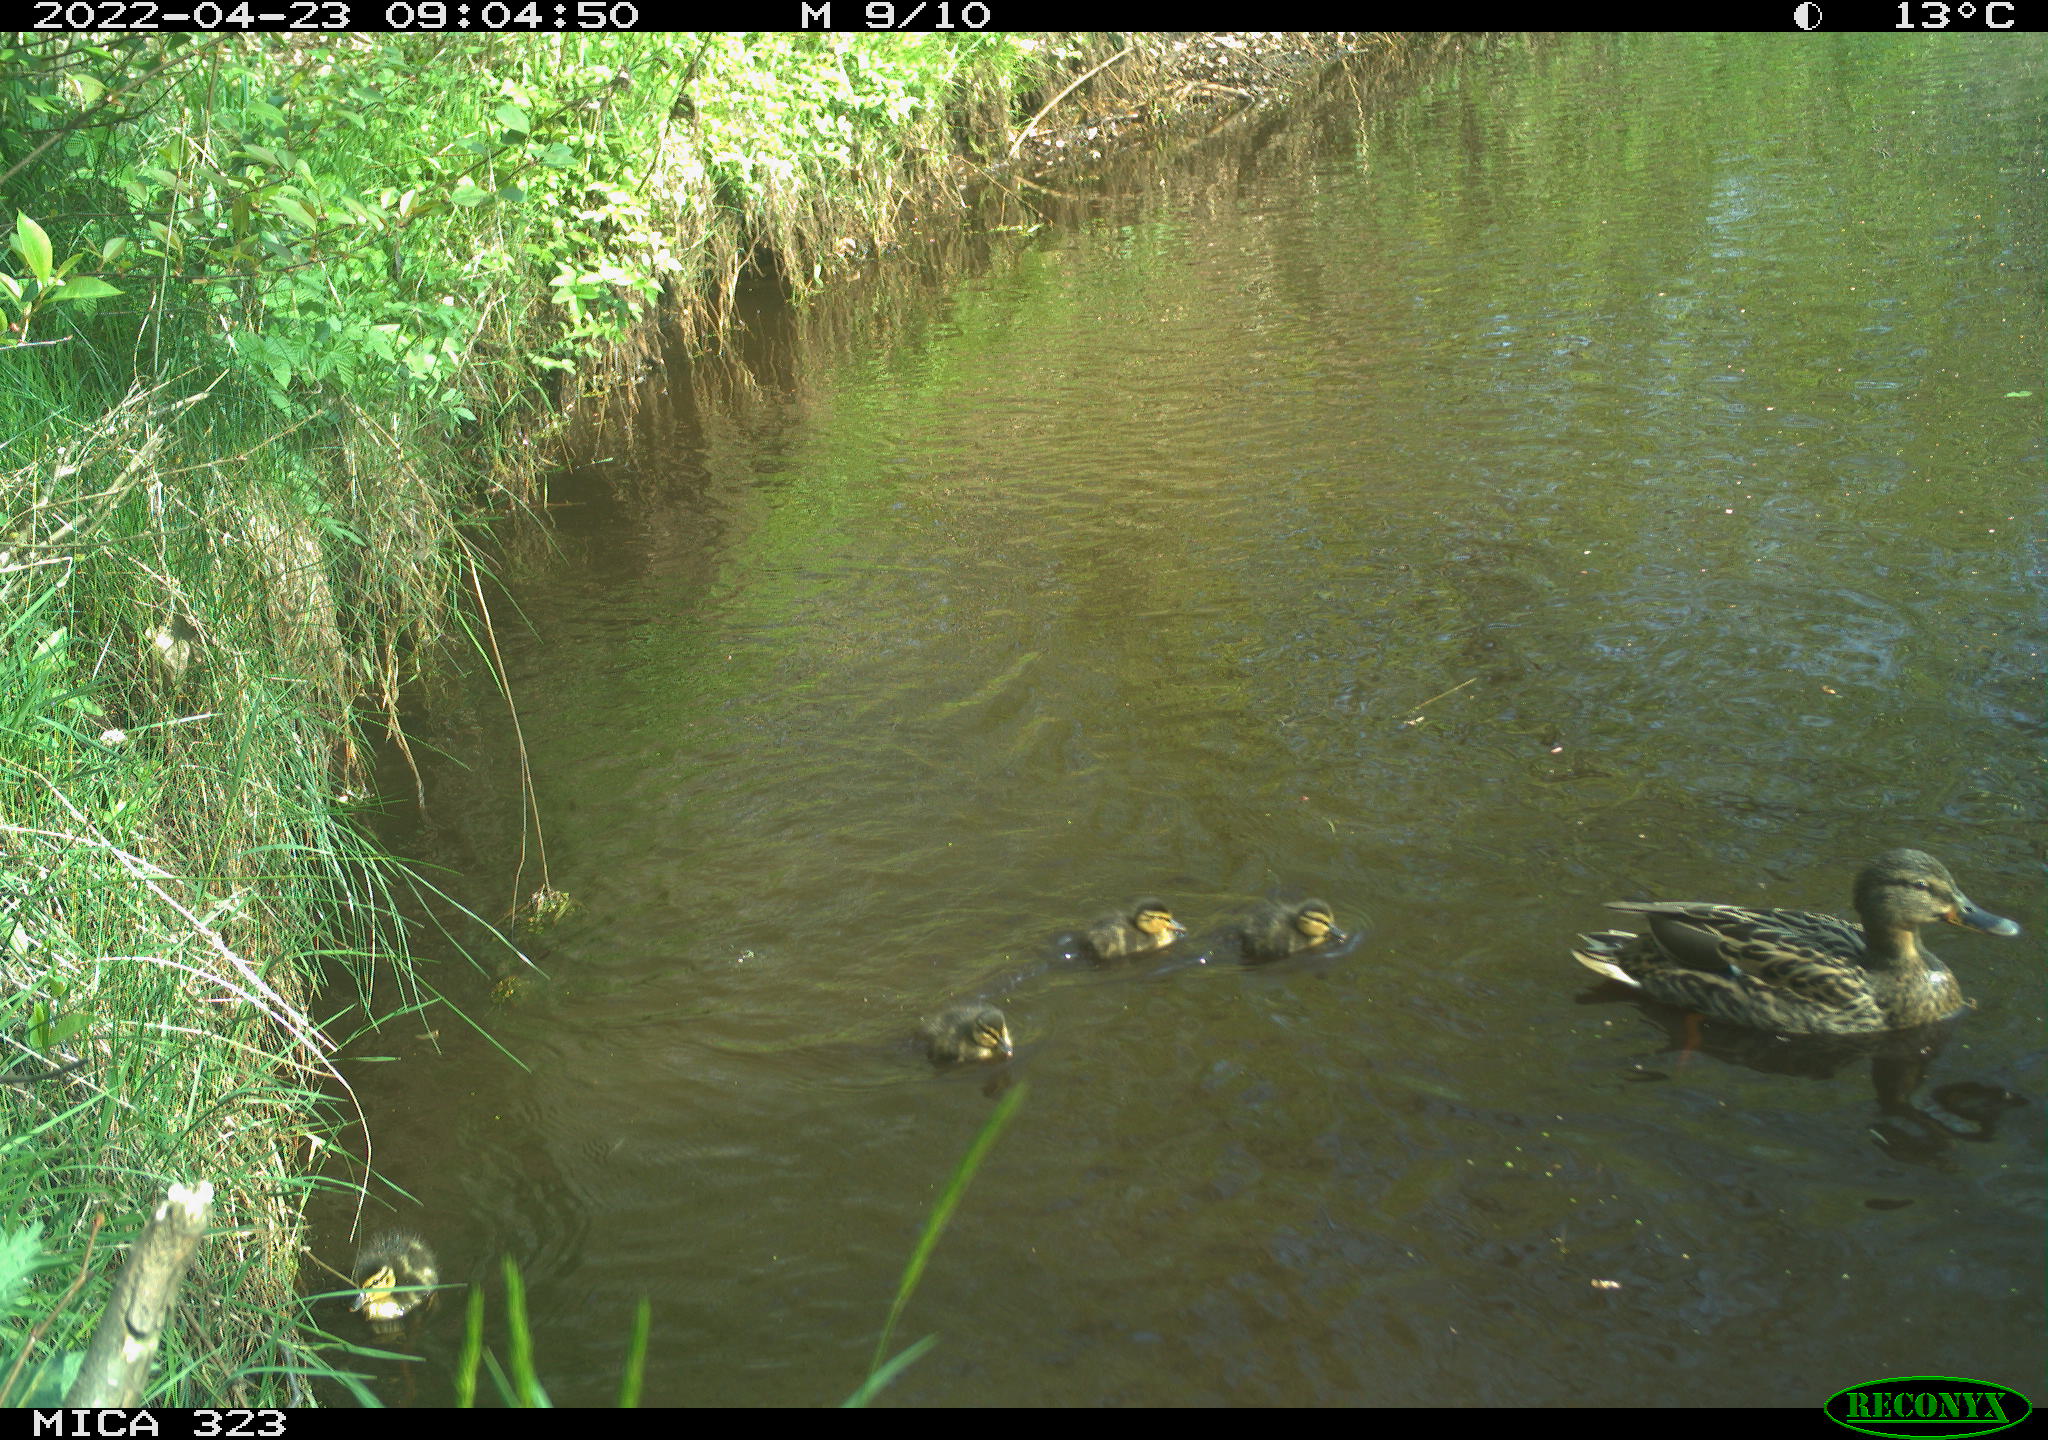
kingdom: Animalia
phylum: Chordata
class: Aves
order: Anseriformes
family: Anatidae
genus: Anas
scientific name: Anas platyrhynchos
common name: Mallard
